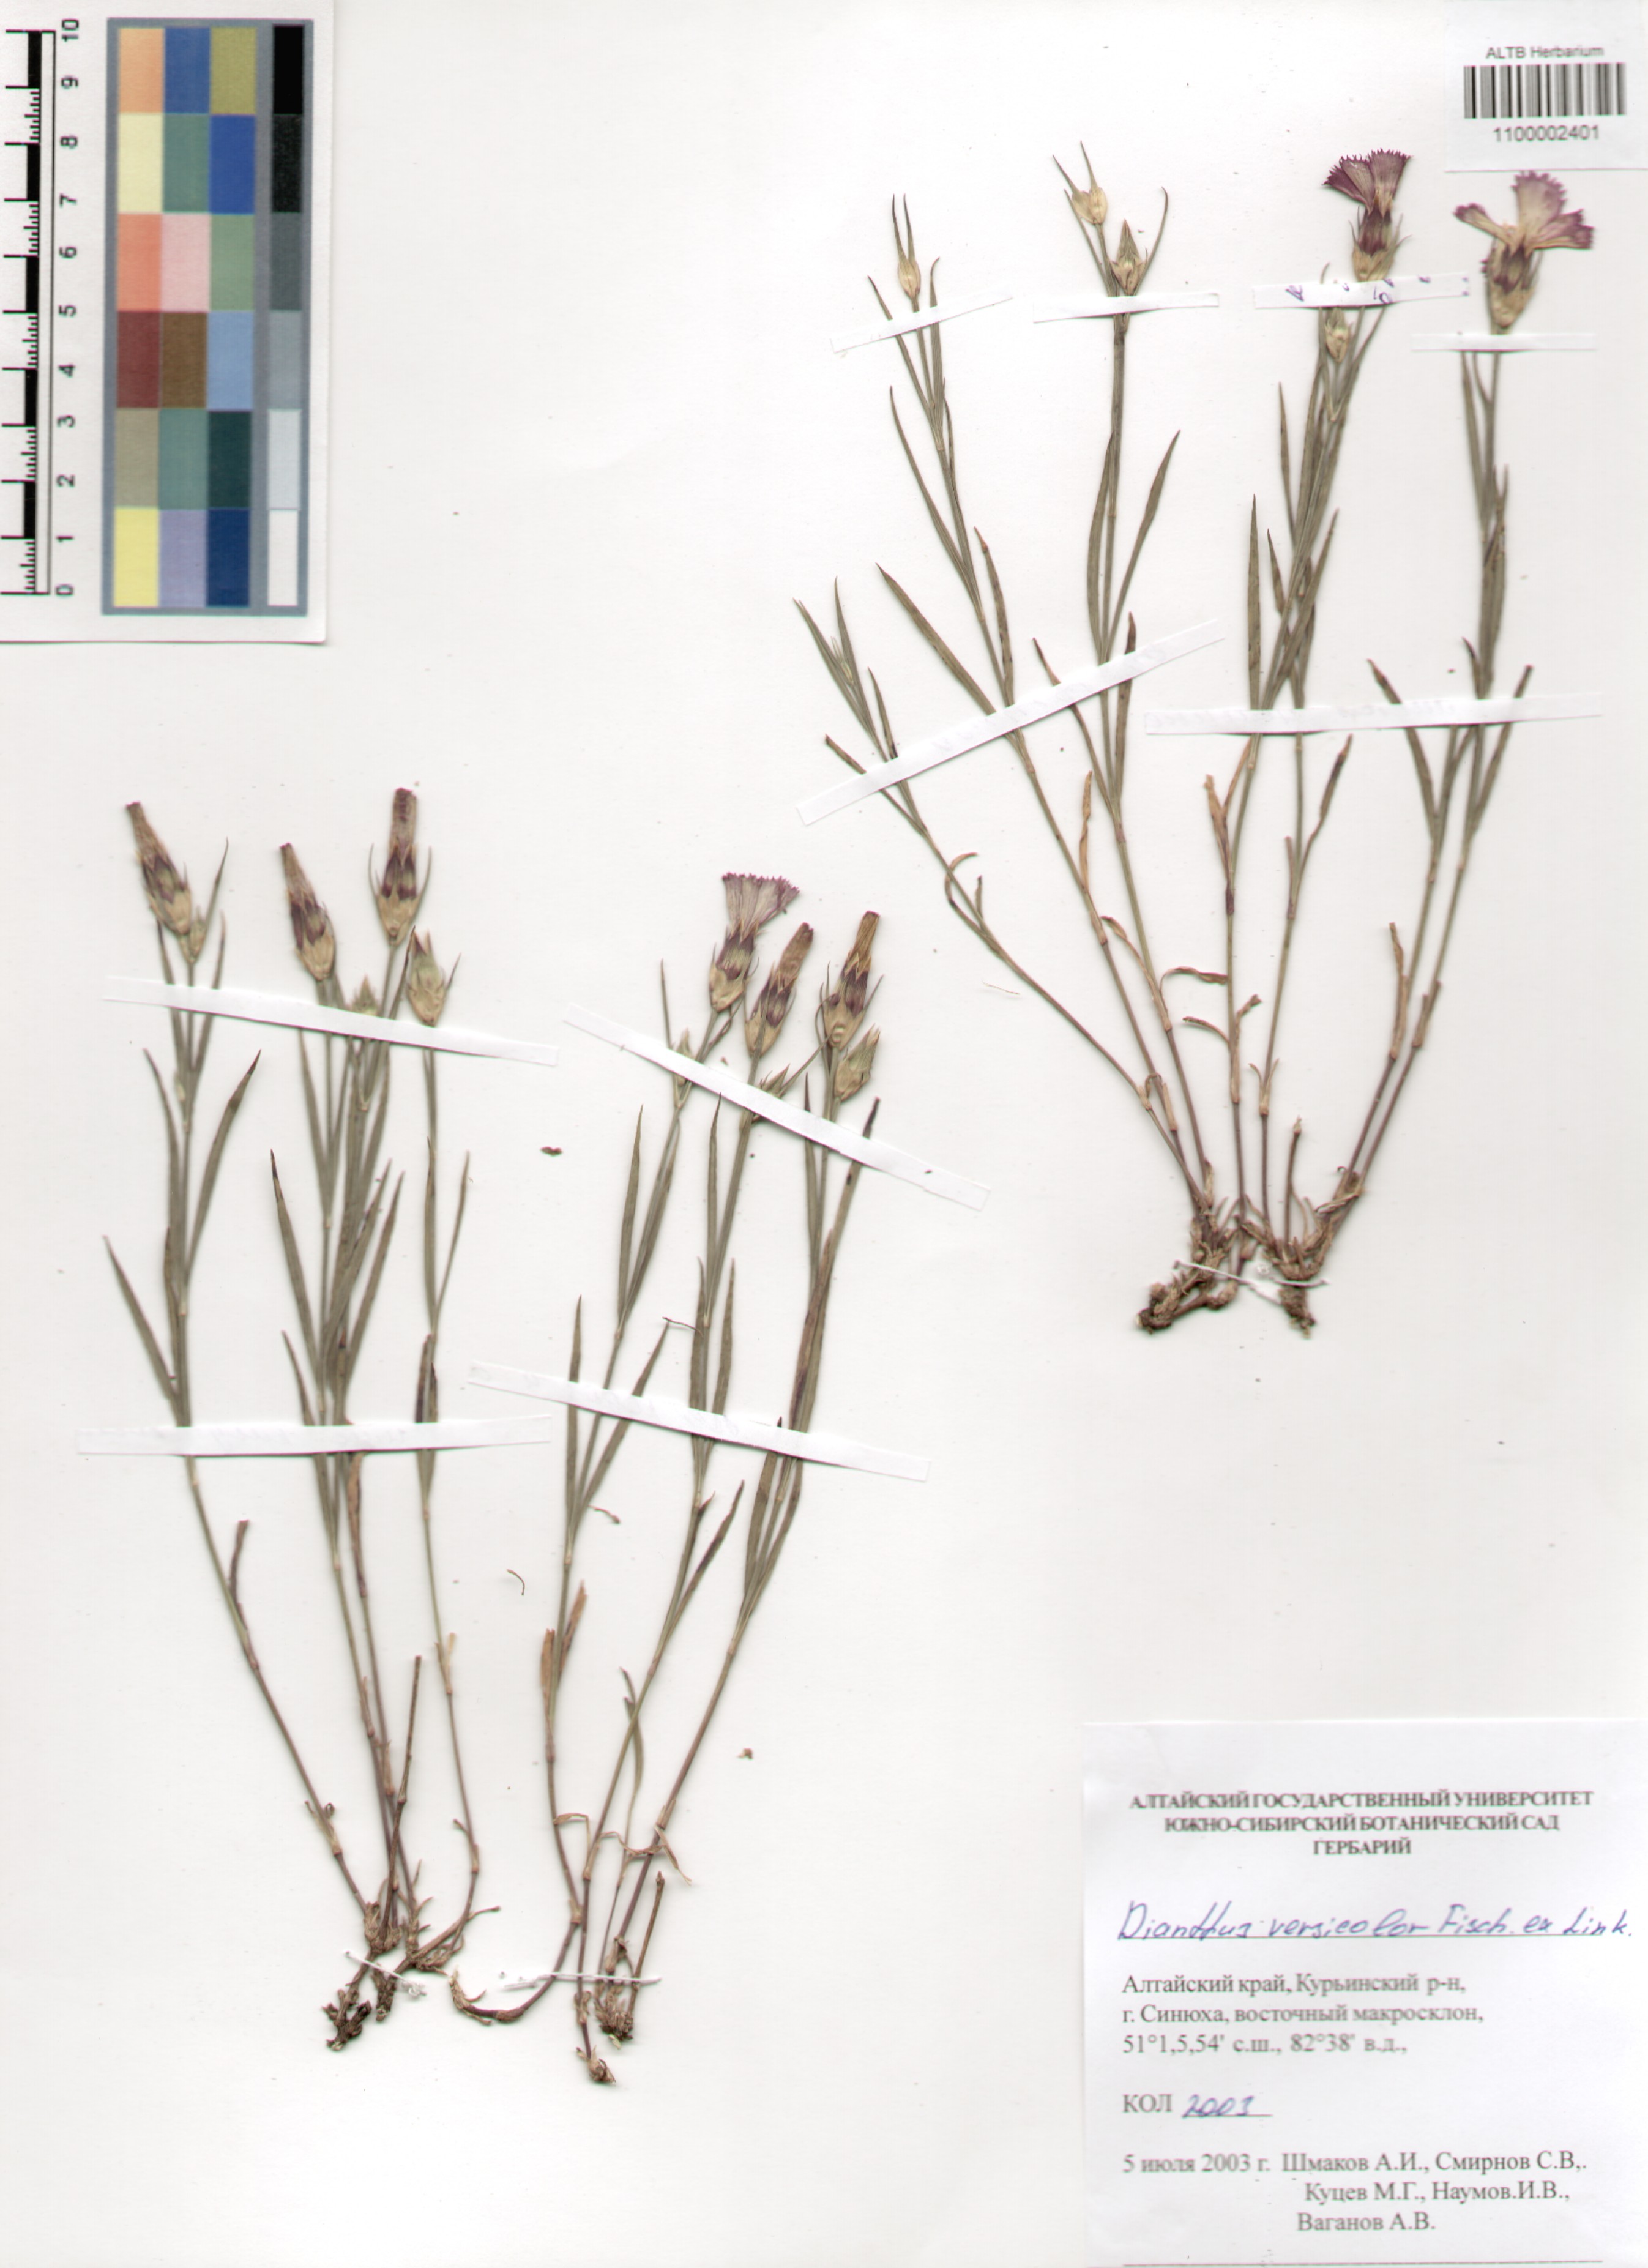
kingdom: Plantae
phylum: Tracheophyta
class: Magnoliopsida
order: Caryophyllales
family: Caryophyllaceae
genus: Dianthus
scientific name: Dianthus chinensis
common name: Rainbow pink
